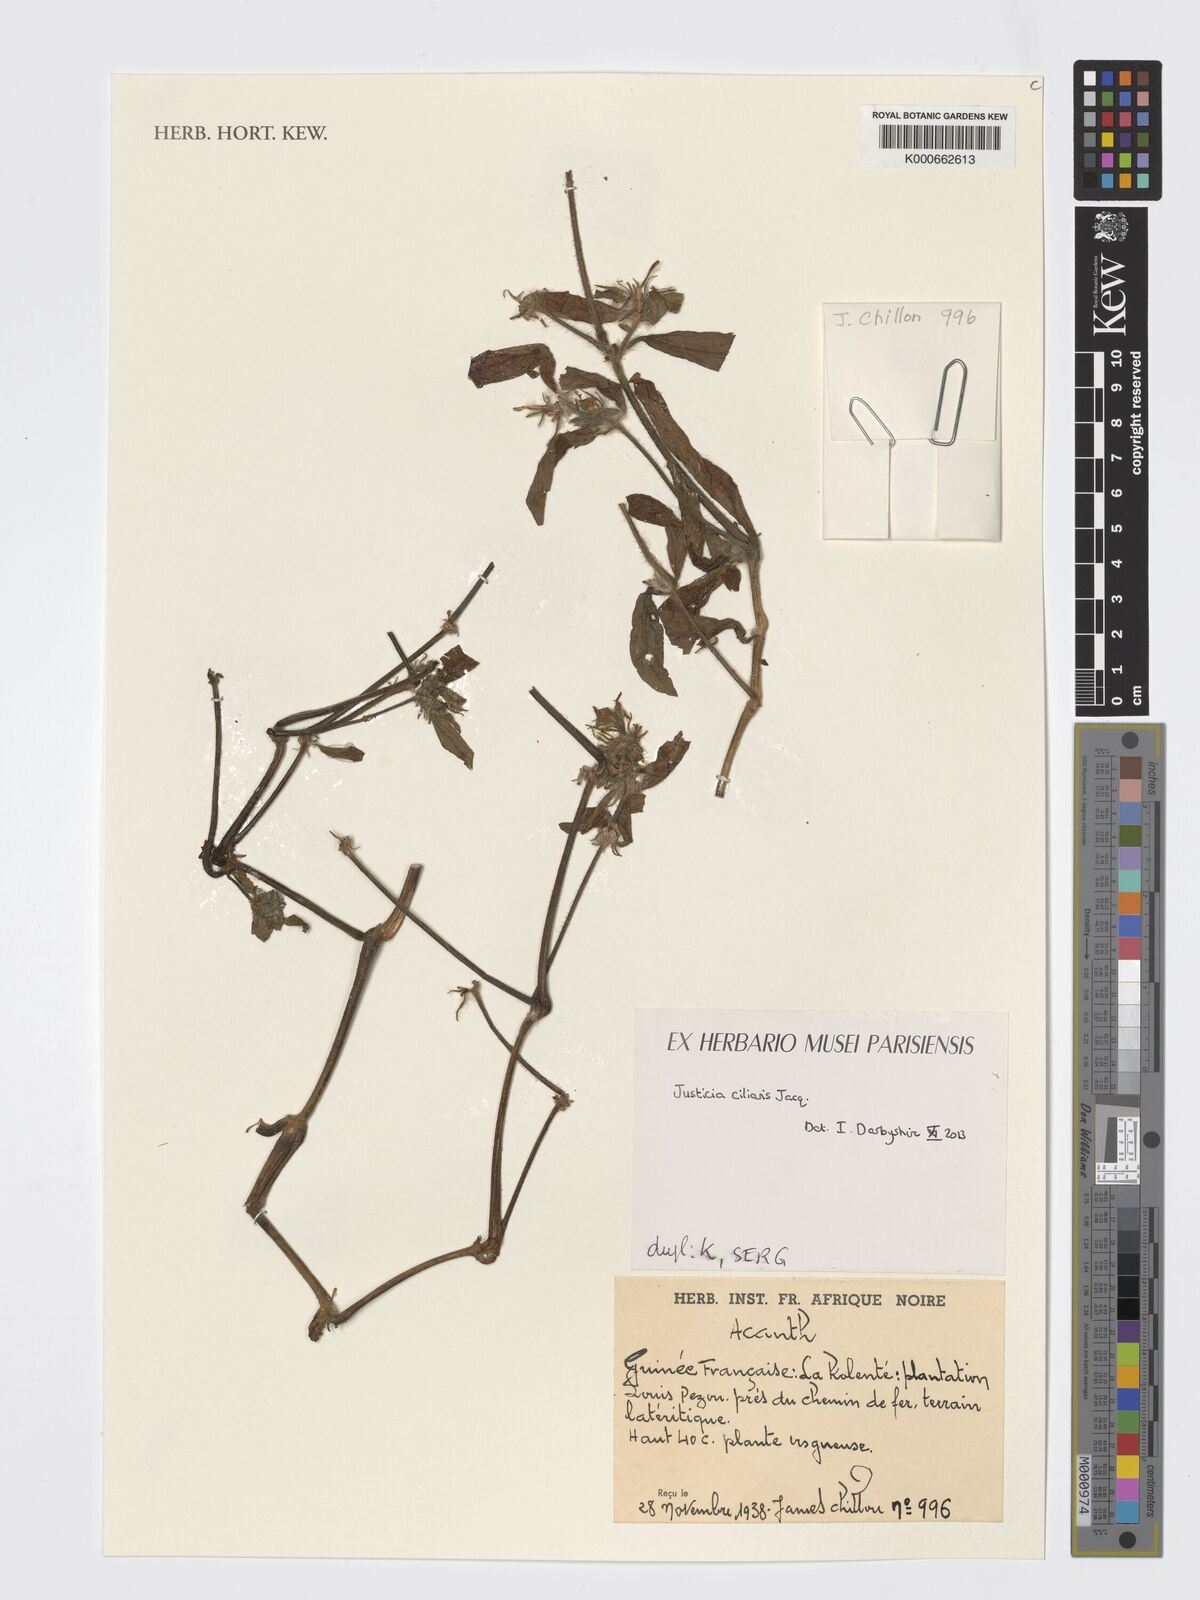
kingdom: Plantae
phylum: Tracheophyta
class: Magnoliopsida
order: Lamiales
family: Acanthaceae
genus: Pogonospermum
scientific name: Pogonospermum ciliare
